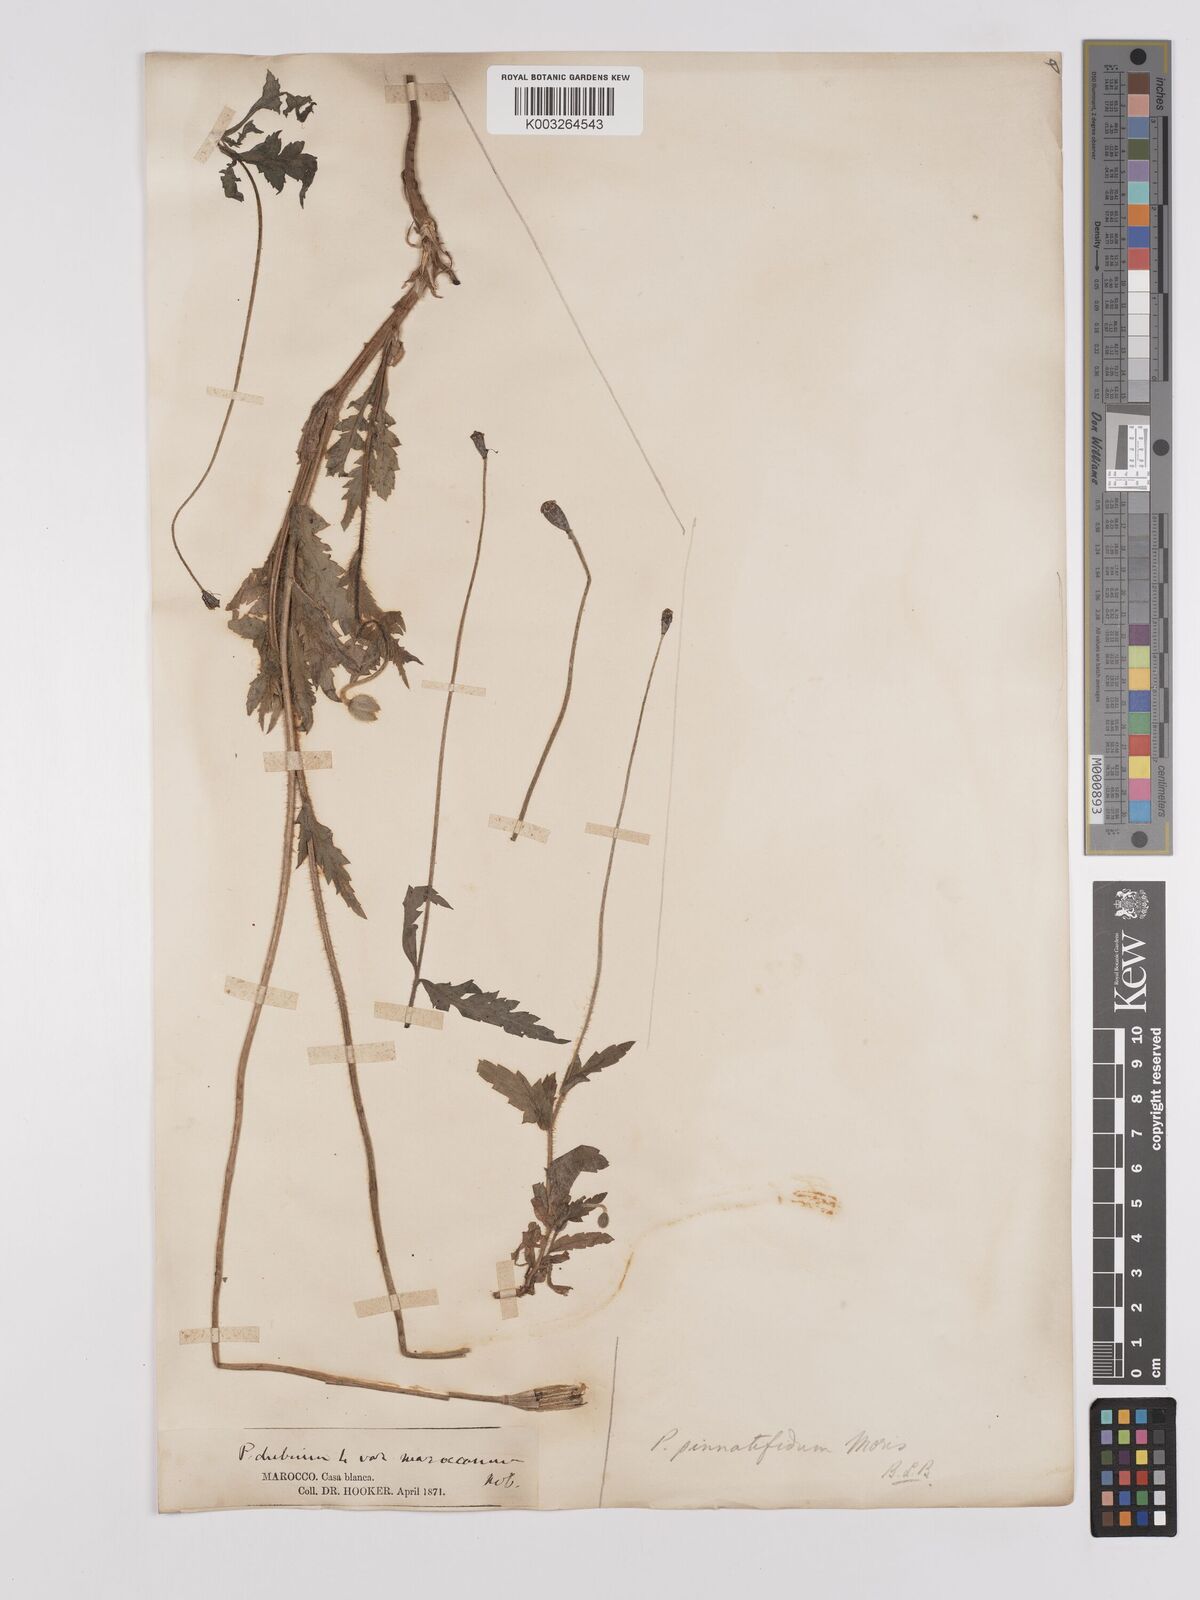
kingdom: Plantae
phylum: Tracheophyta
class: Magnoliopsida
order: Ranunculales
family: Papaveraceae
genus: Papaver
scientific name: Papaver pinnatifidum
